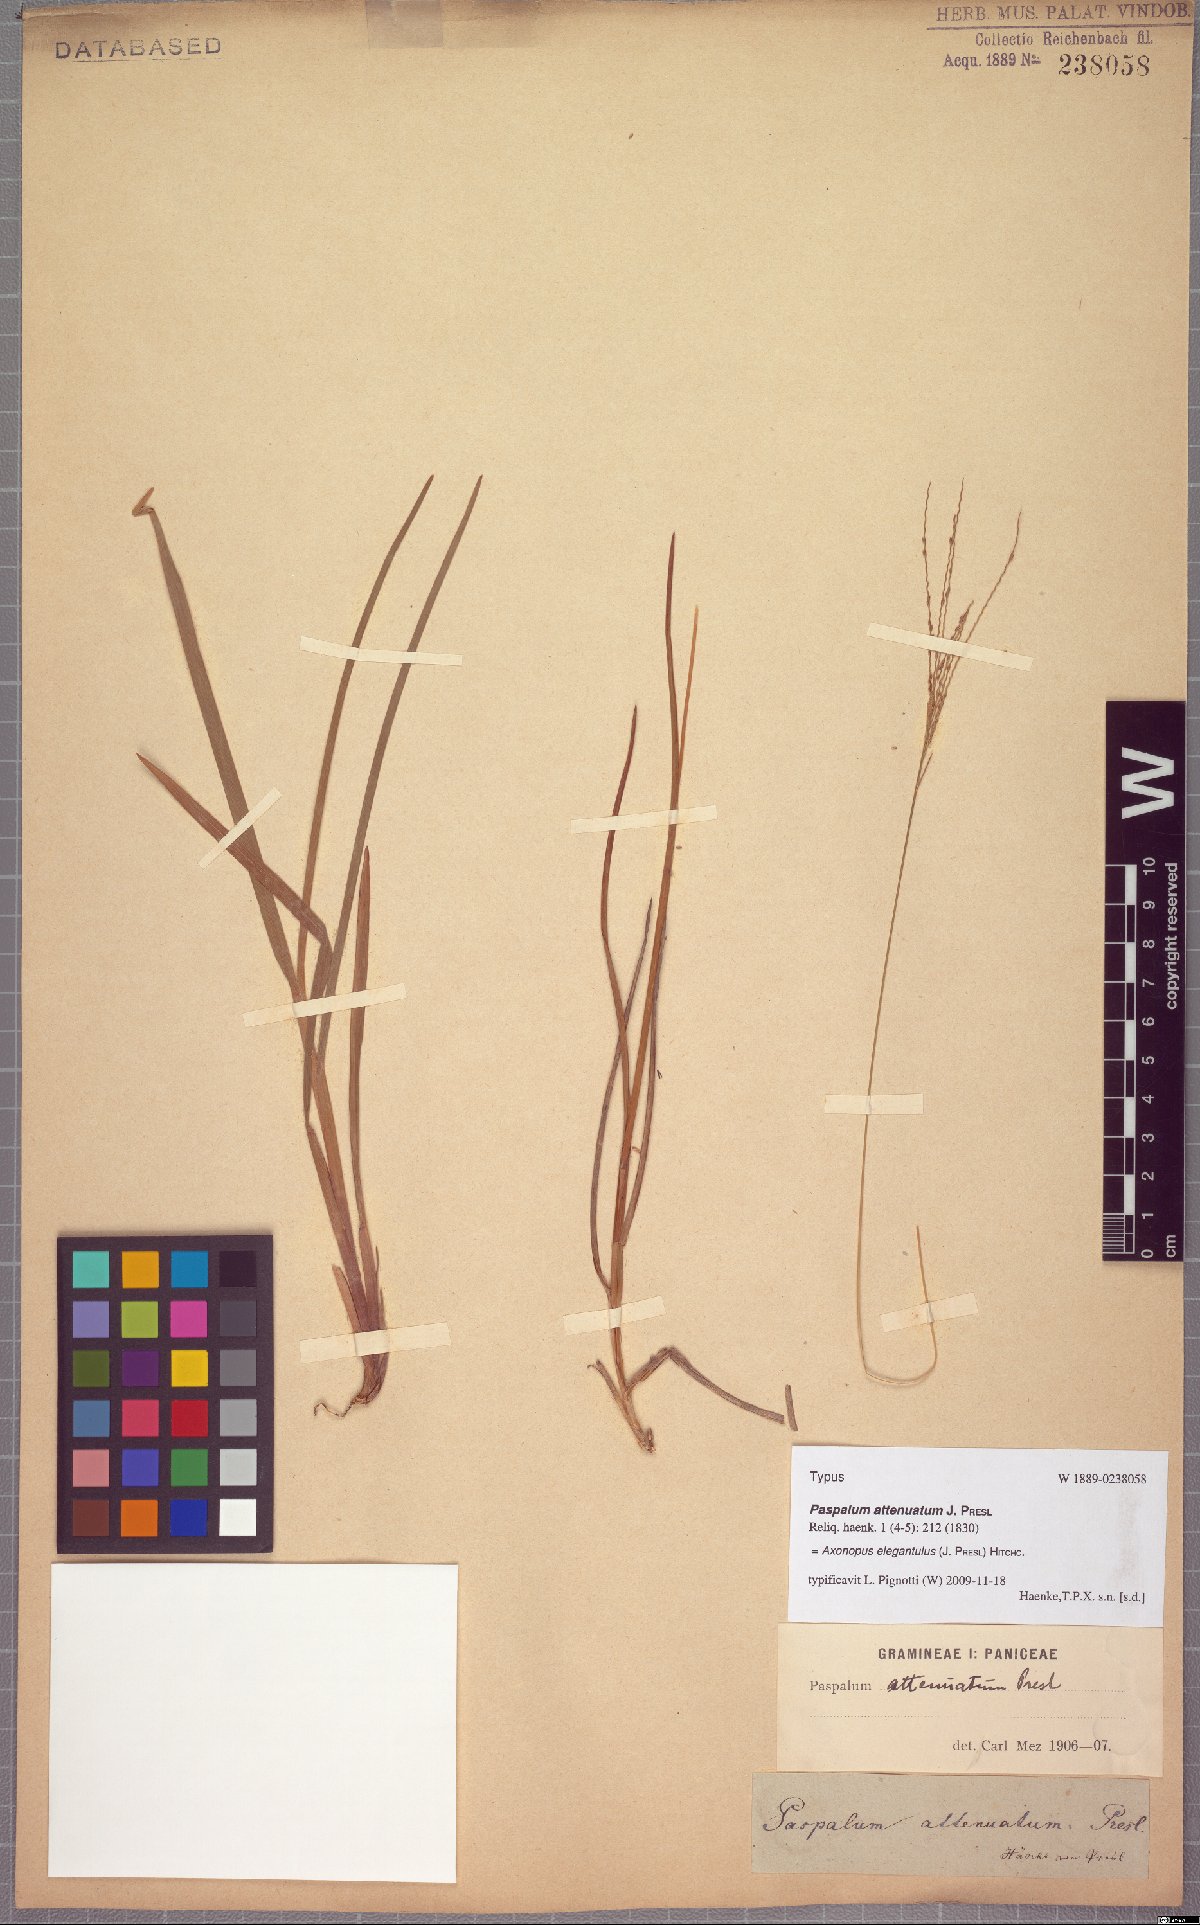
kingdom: Plantae
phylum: Tracheophyta
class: Liliopsida
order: Poales
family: Poaceae
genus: Axonopus
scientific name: Axonopus elegantulus
